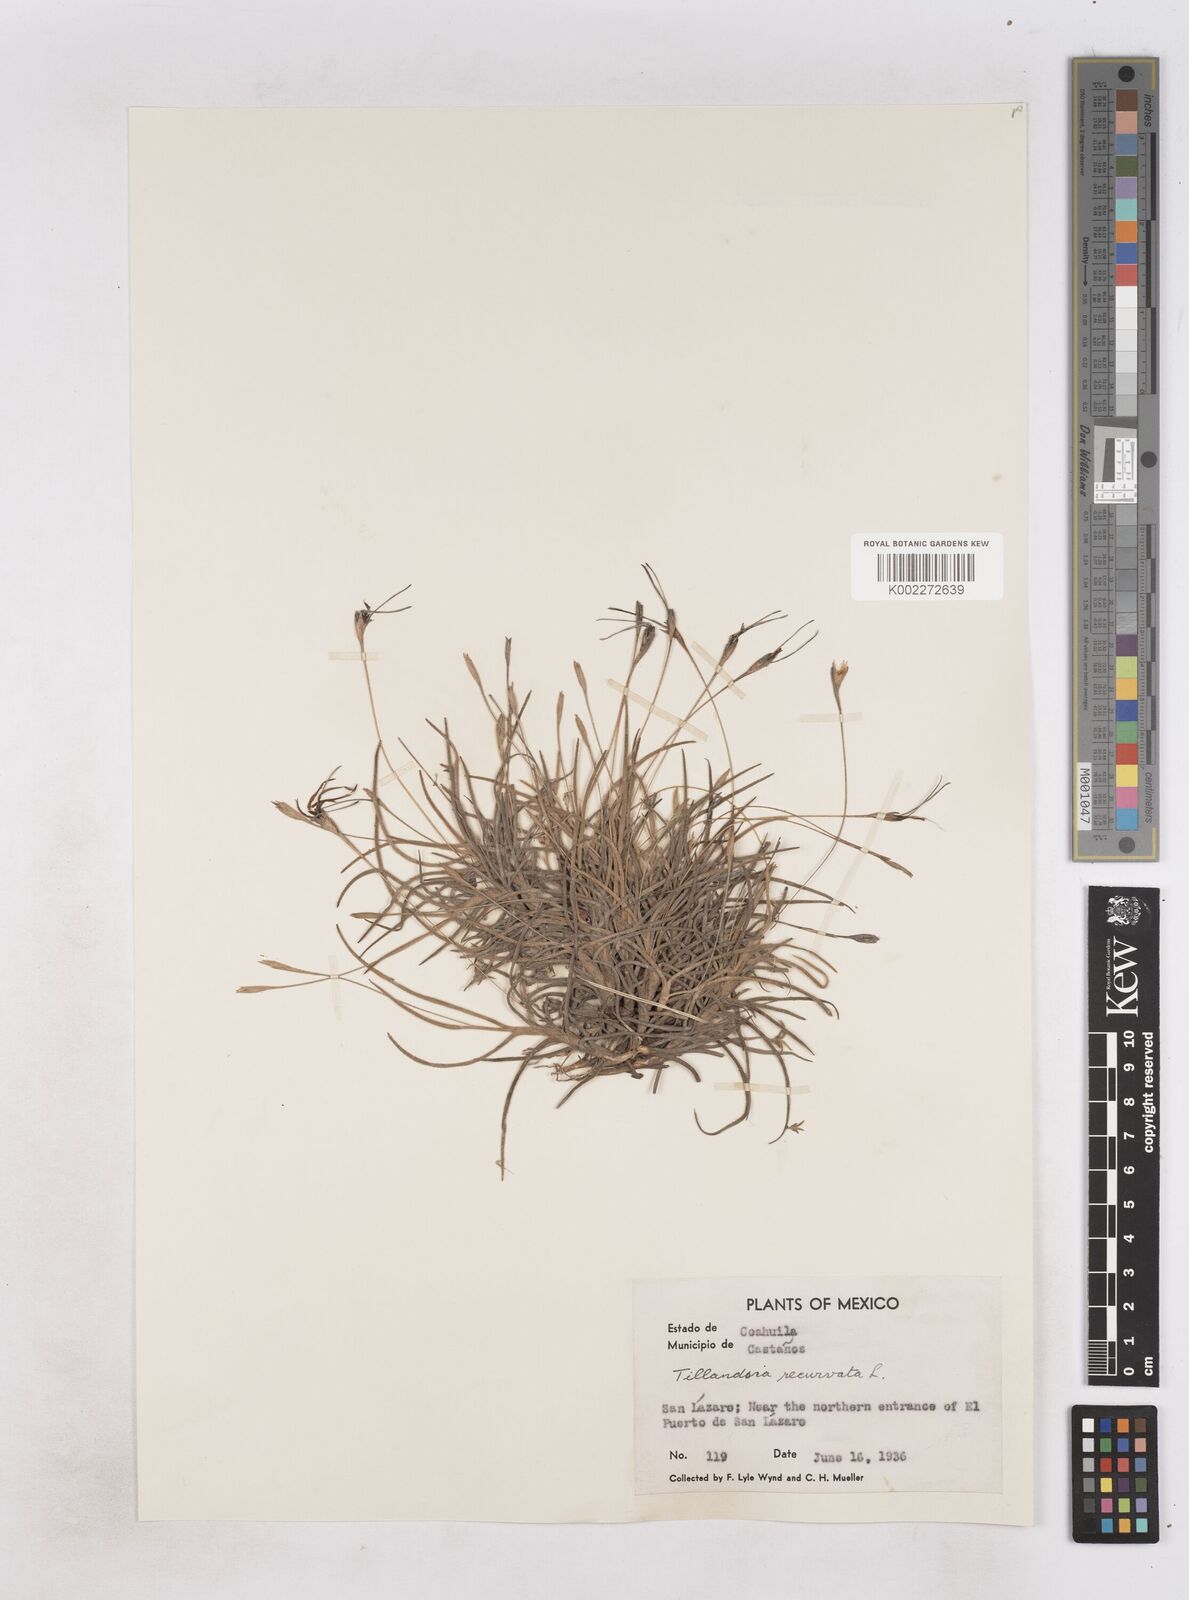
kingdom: Plantae
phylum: Tracheophyta
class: Liliopsida
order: Poales
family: Bromeliaceae
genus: Tillandsia
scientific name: Tillandsia recurvata
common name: Small ballmoss
